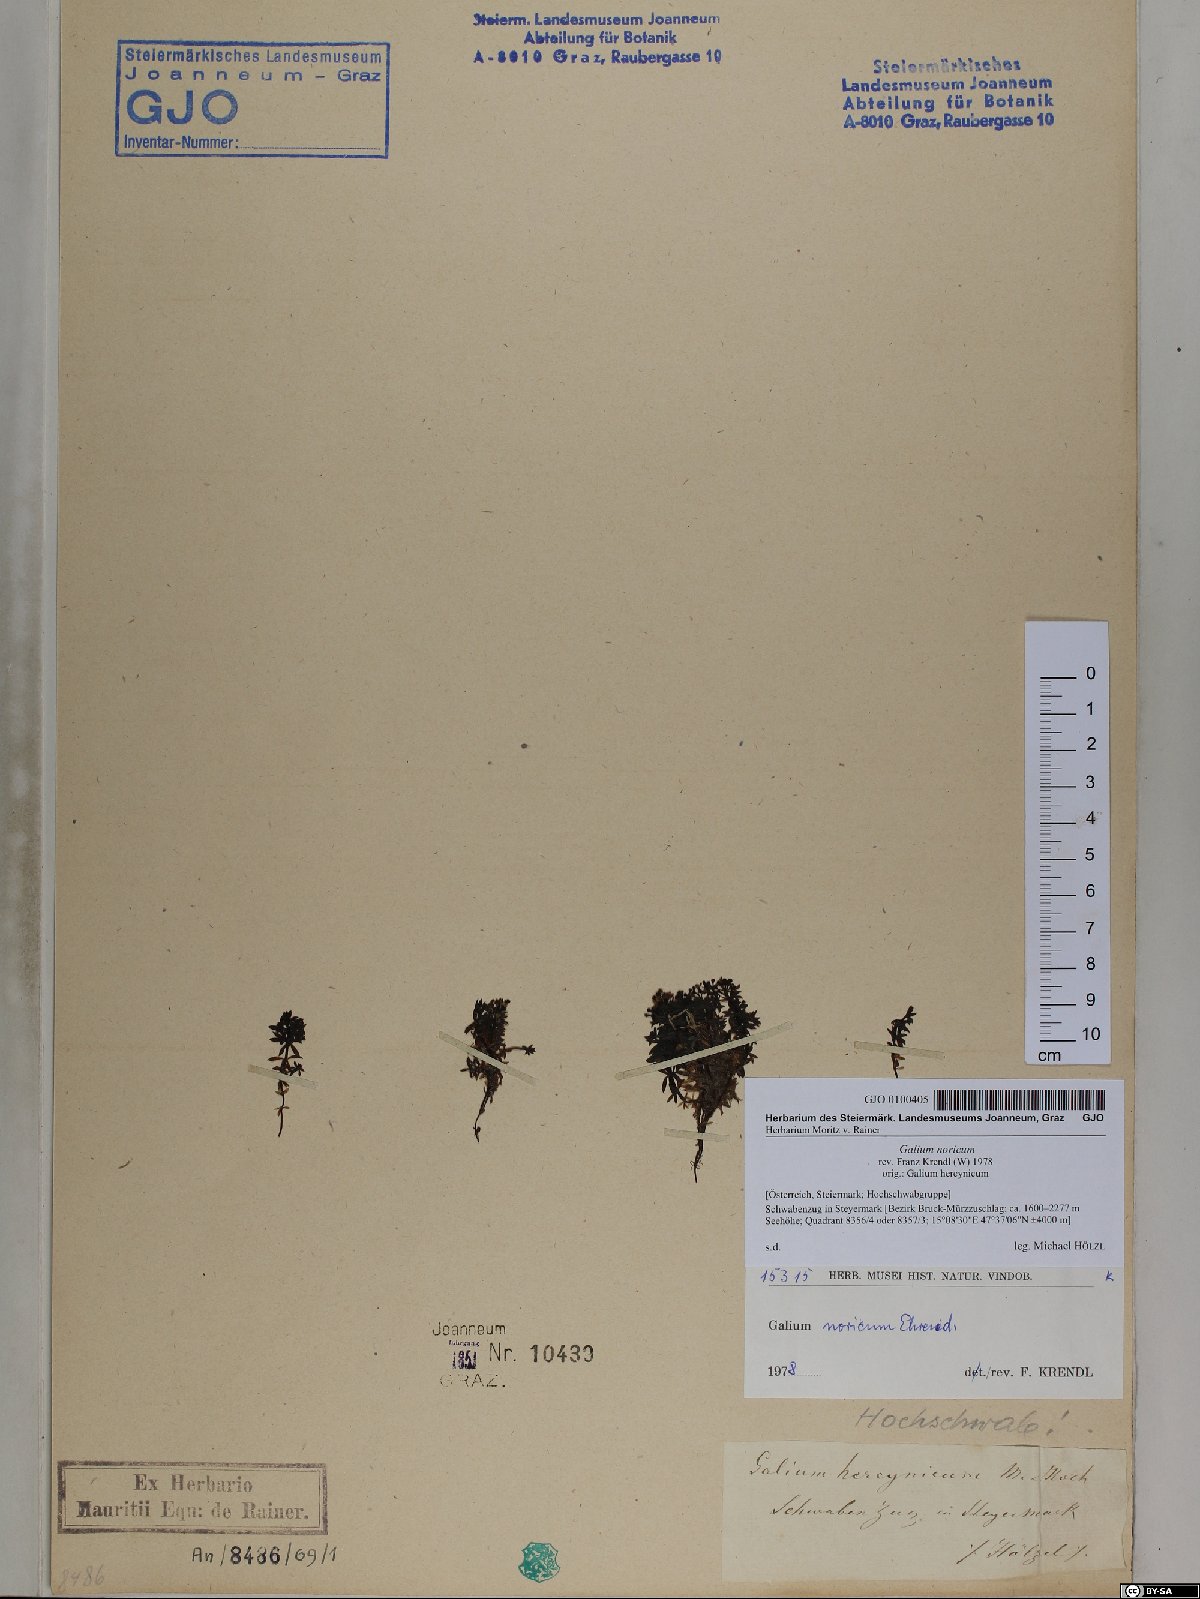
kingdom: Plantae
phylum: Tracheophyta
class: Magnoliopsida
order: Gentianales
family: Rubiaceae
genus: Galium
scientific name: Galium noricum
